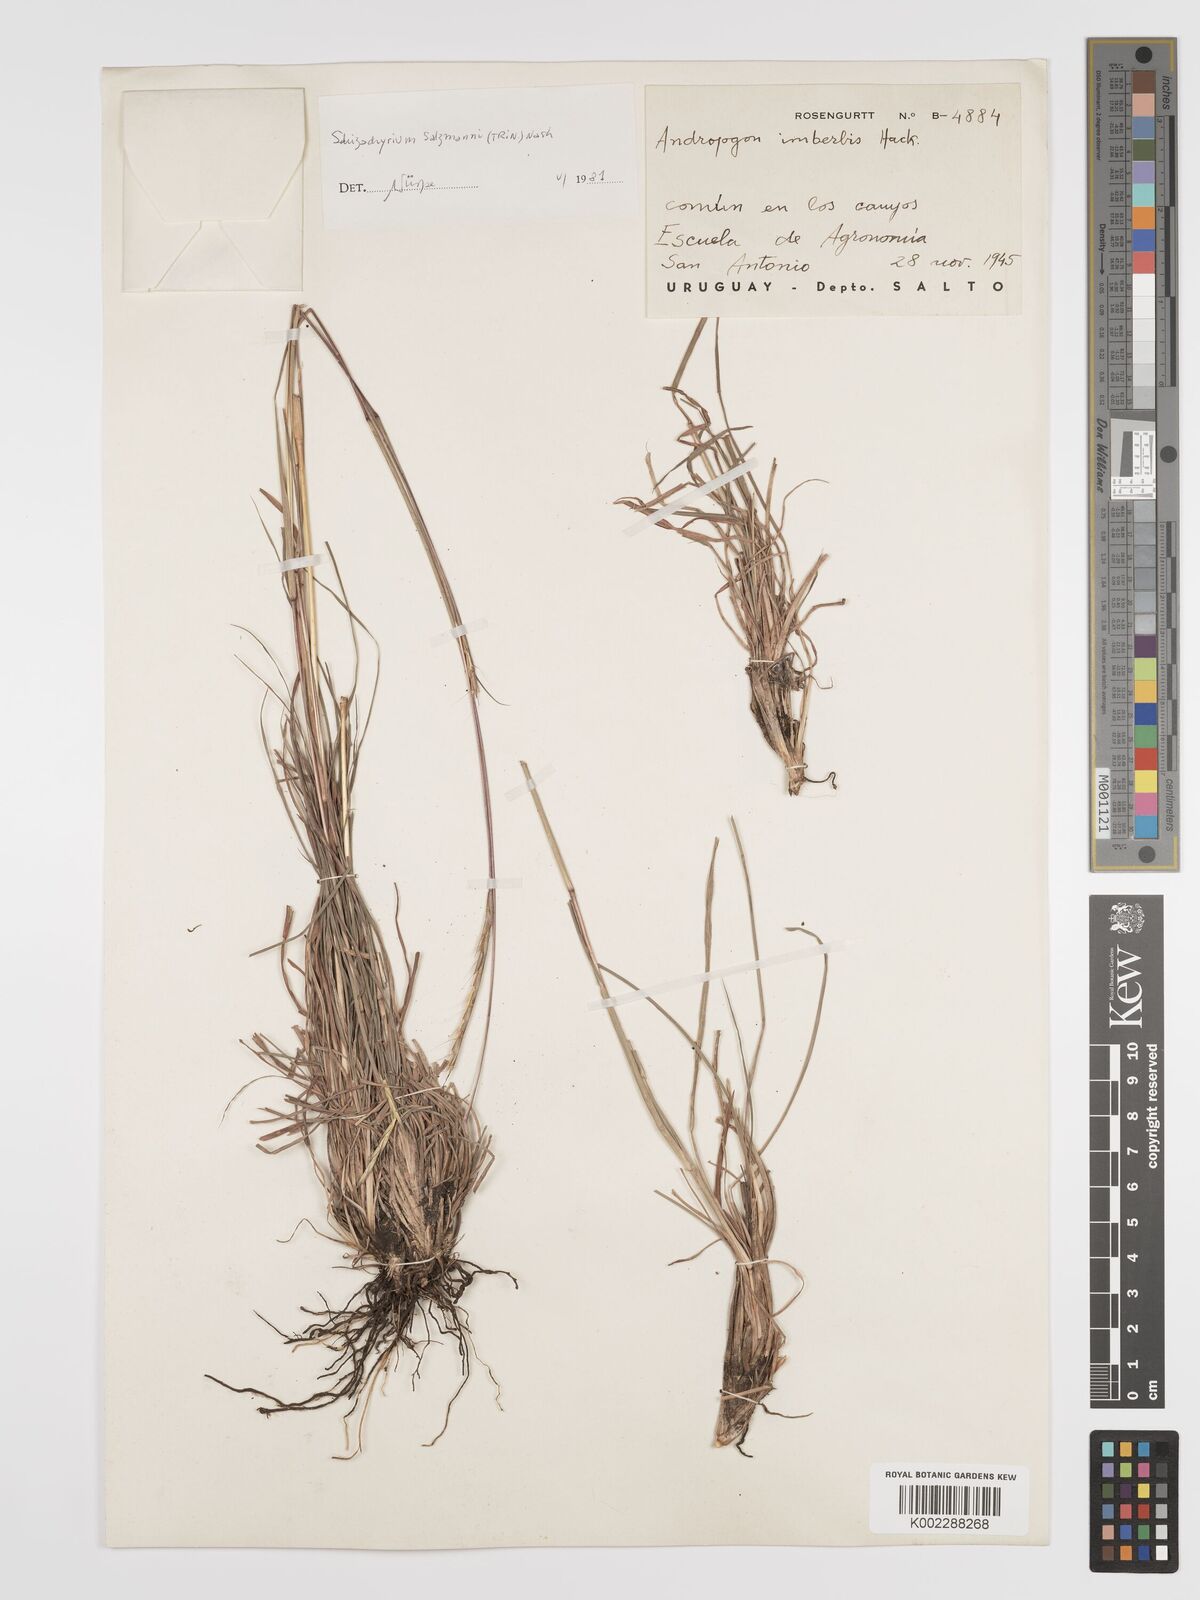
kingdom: Plantae
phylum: Tracheophyta
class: Liliopsida
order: Poales
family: Poaceae
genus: Andropogon
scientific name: Andropogon salzmannii
